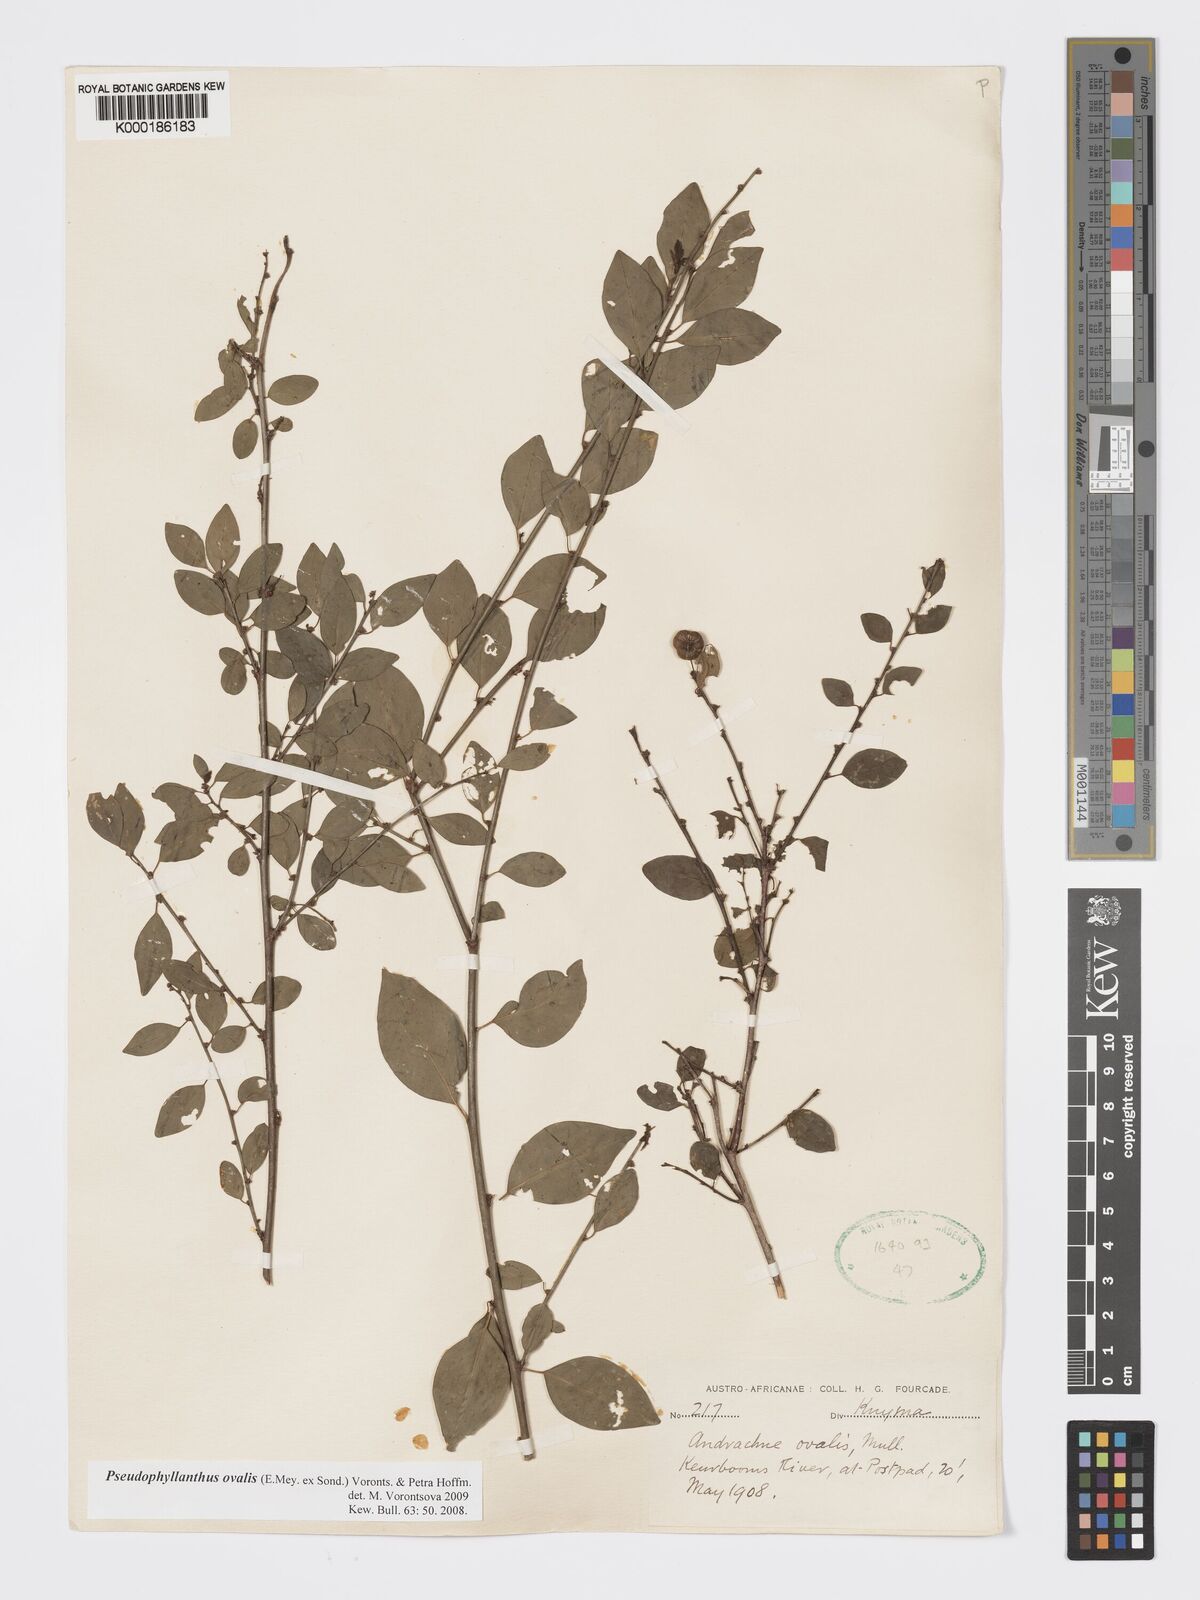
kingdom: Plantae
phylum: Tracheophyta
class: Magnoliopsida
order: Malpighiales
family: Phyllanthaceae
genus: Pseudophyllanthus
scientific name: Pseudophyllanthus ovalis
